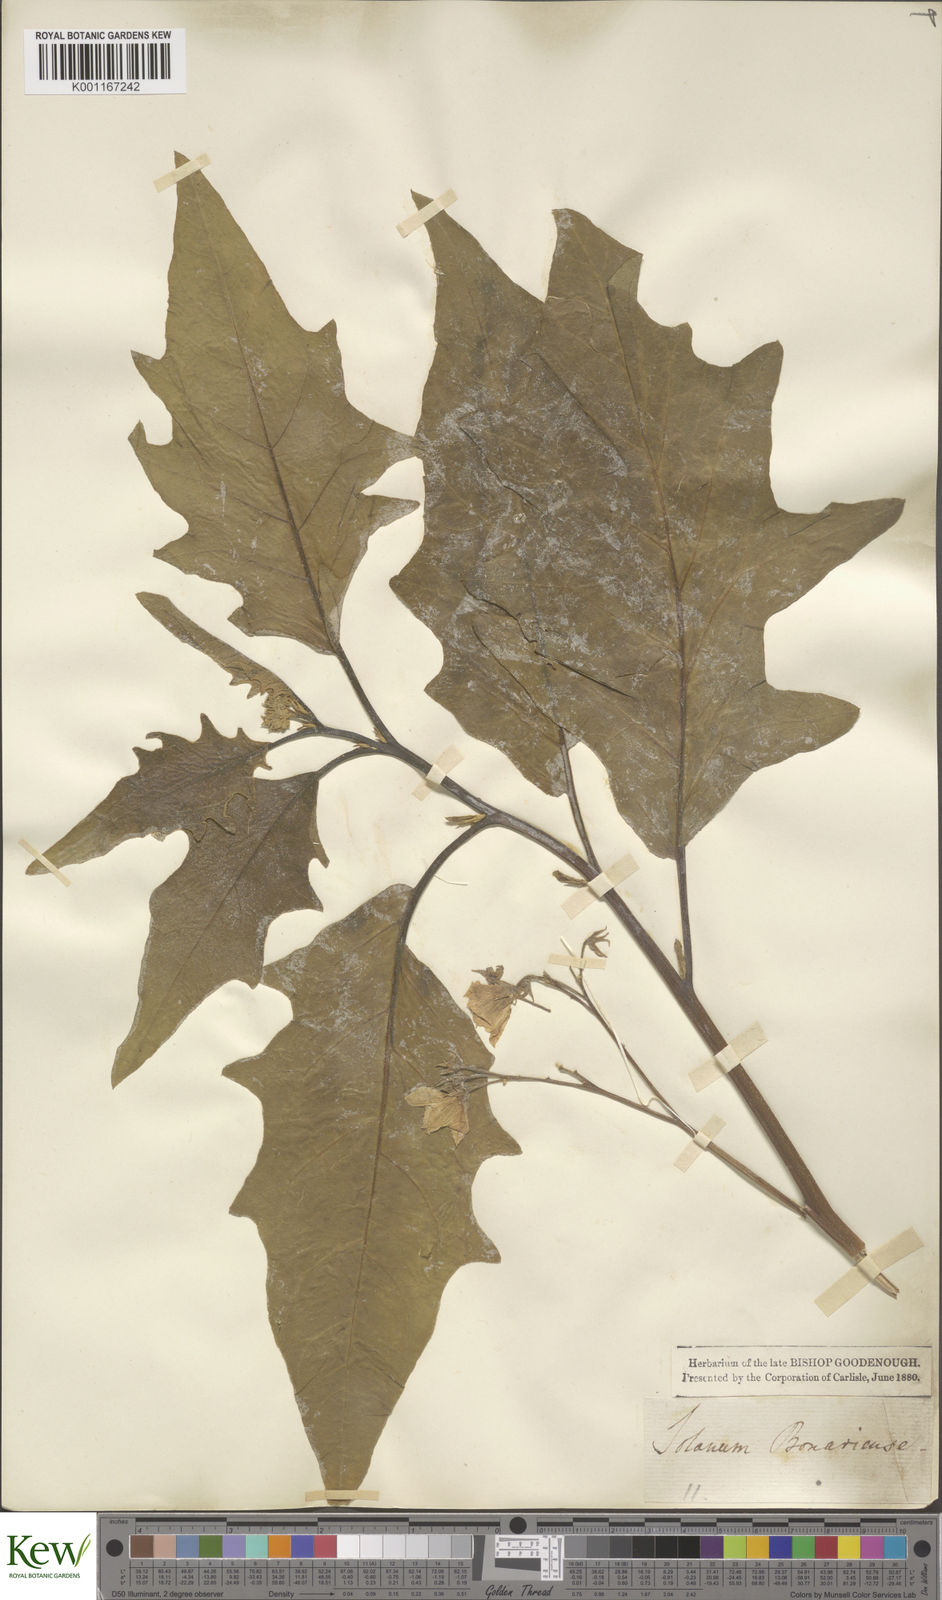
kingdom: Plantae
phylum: Tracheophyta
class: Magnoliopsida
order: Solanales
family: Solanaceae
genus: Solanum
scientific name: Solanum bonariense
